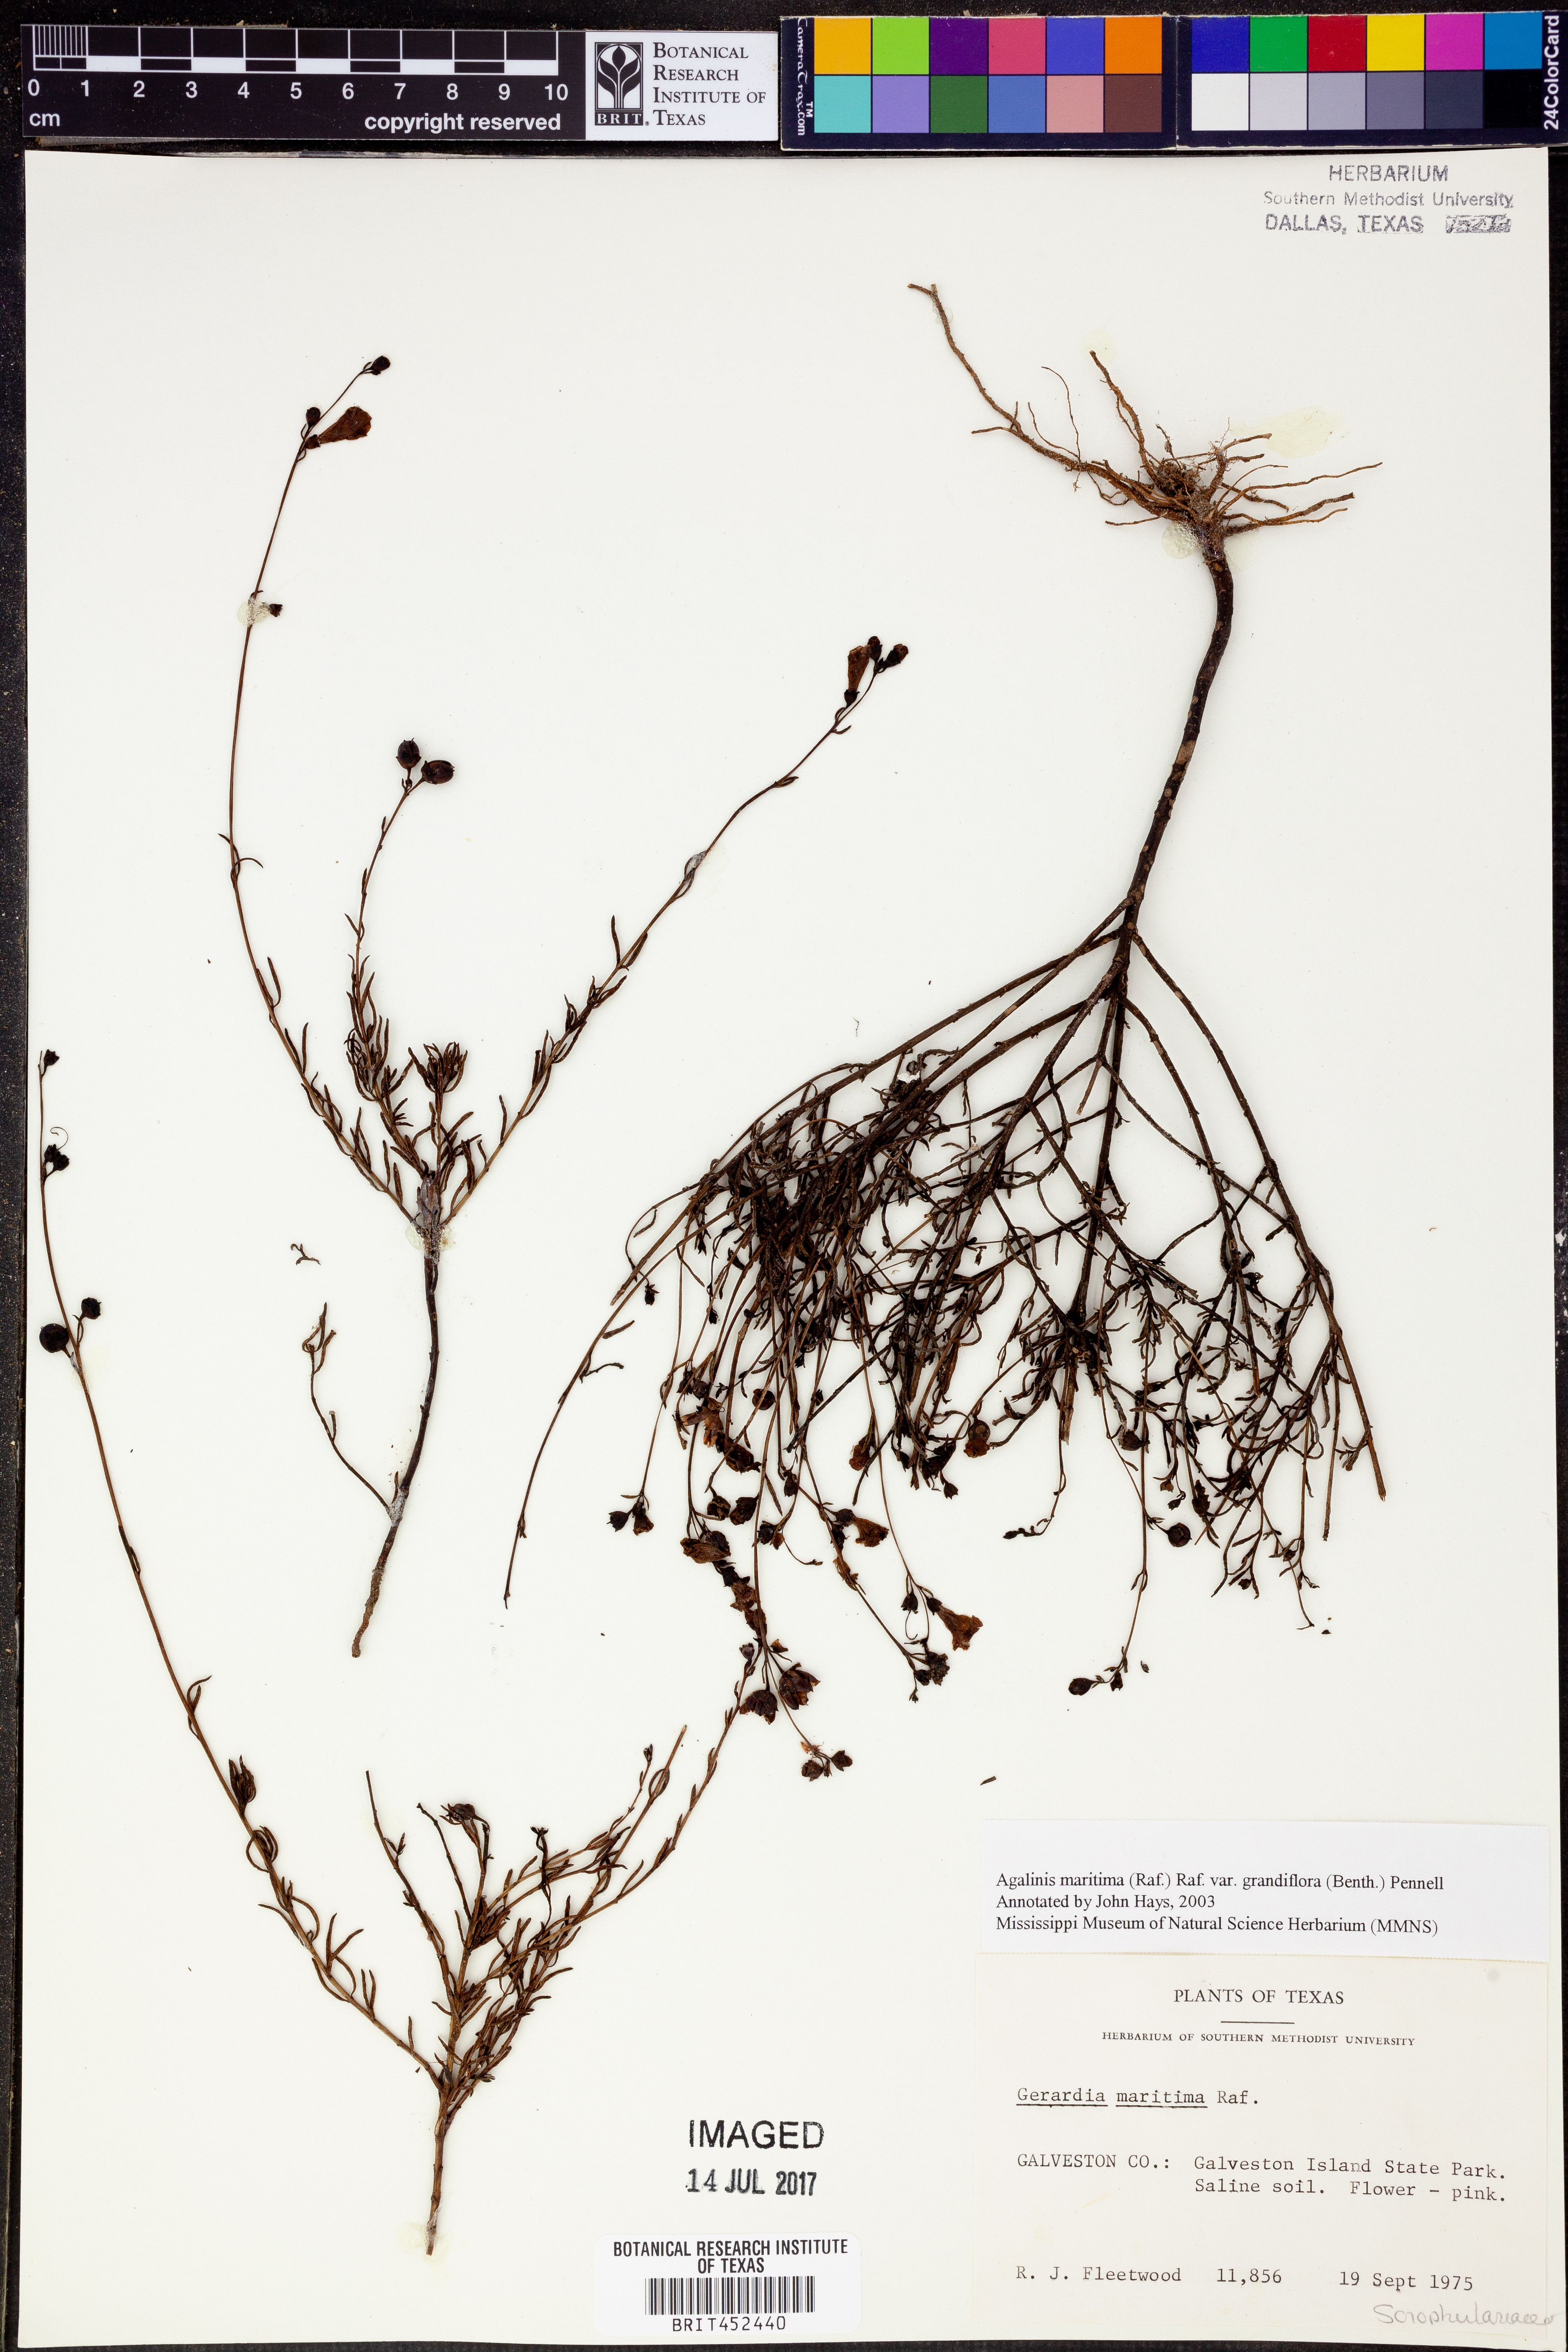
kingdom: Plantae
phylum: Tracheophyta
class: Magnoliopsida
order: Lamiales
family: Orobanchaceae
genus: Agalinis
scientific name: Agalinis harperi
